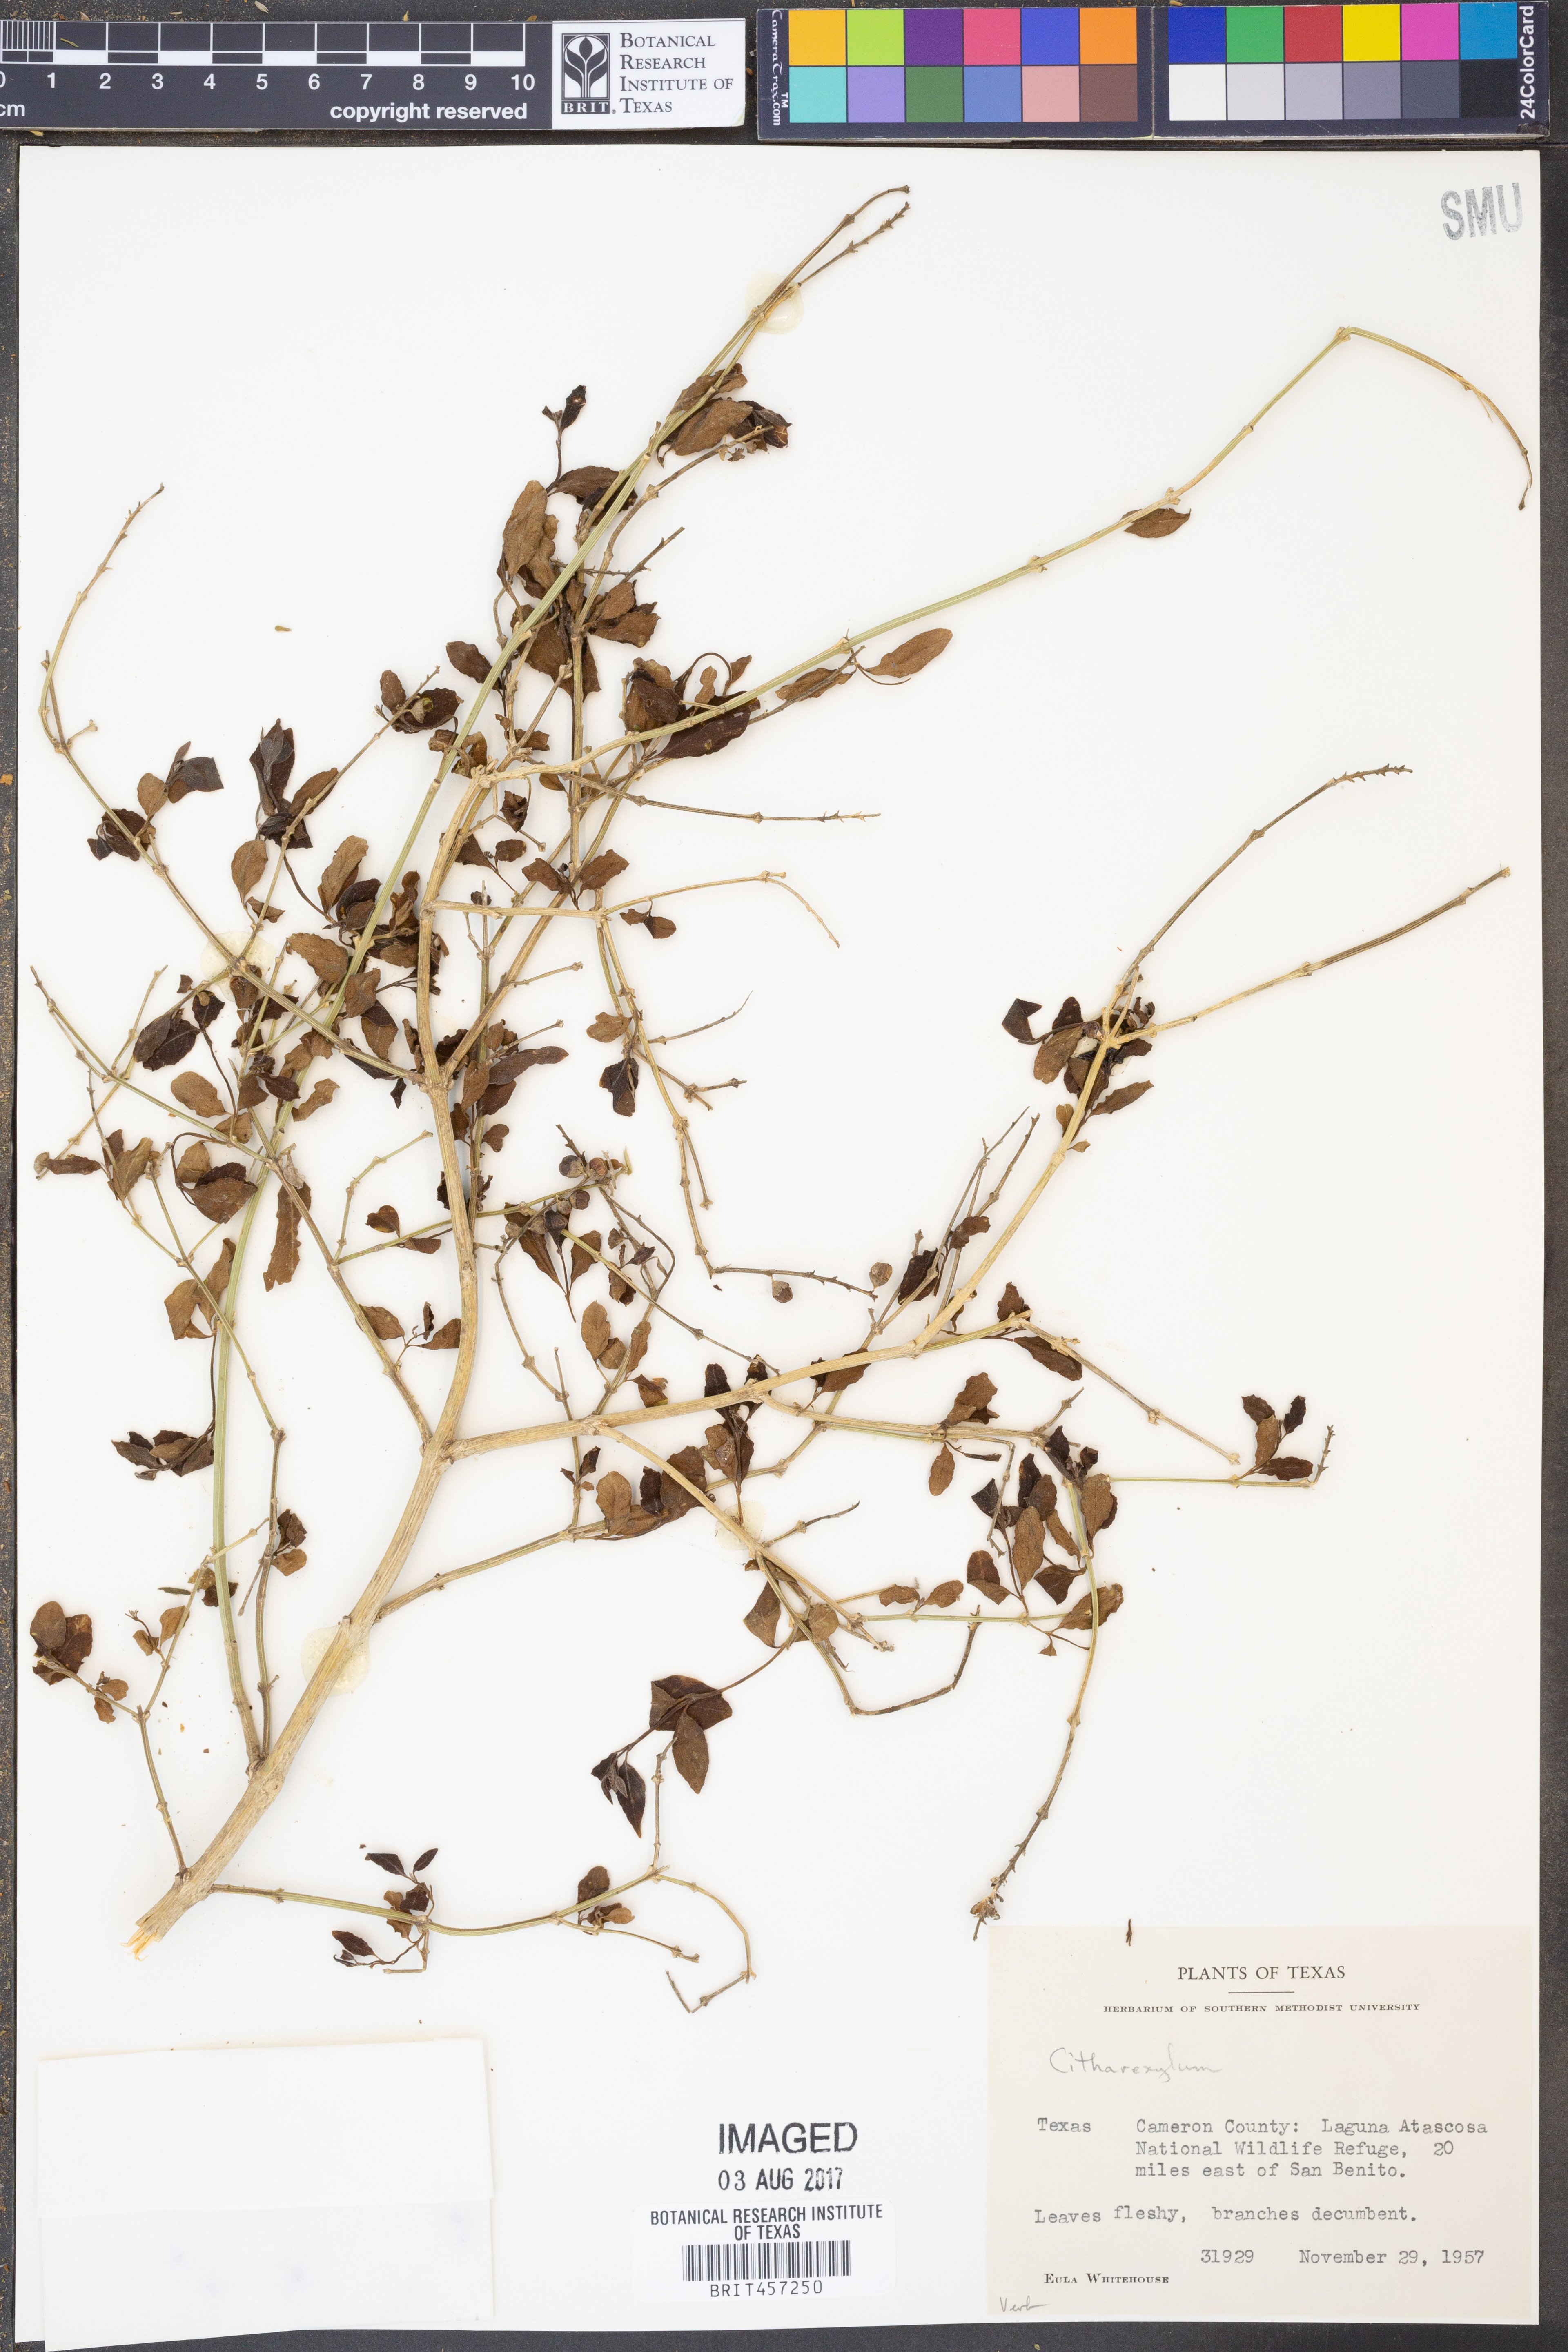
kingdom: Plantae
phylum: Tracheophyta
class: Magnoliopsida
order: Lamiales
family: Verbenaceae
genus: Citharexylum
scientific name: Citharexylum
